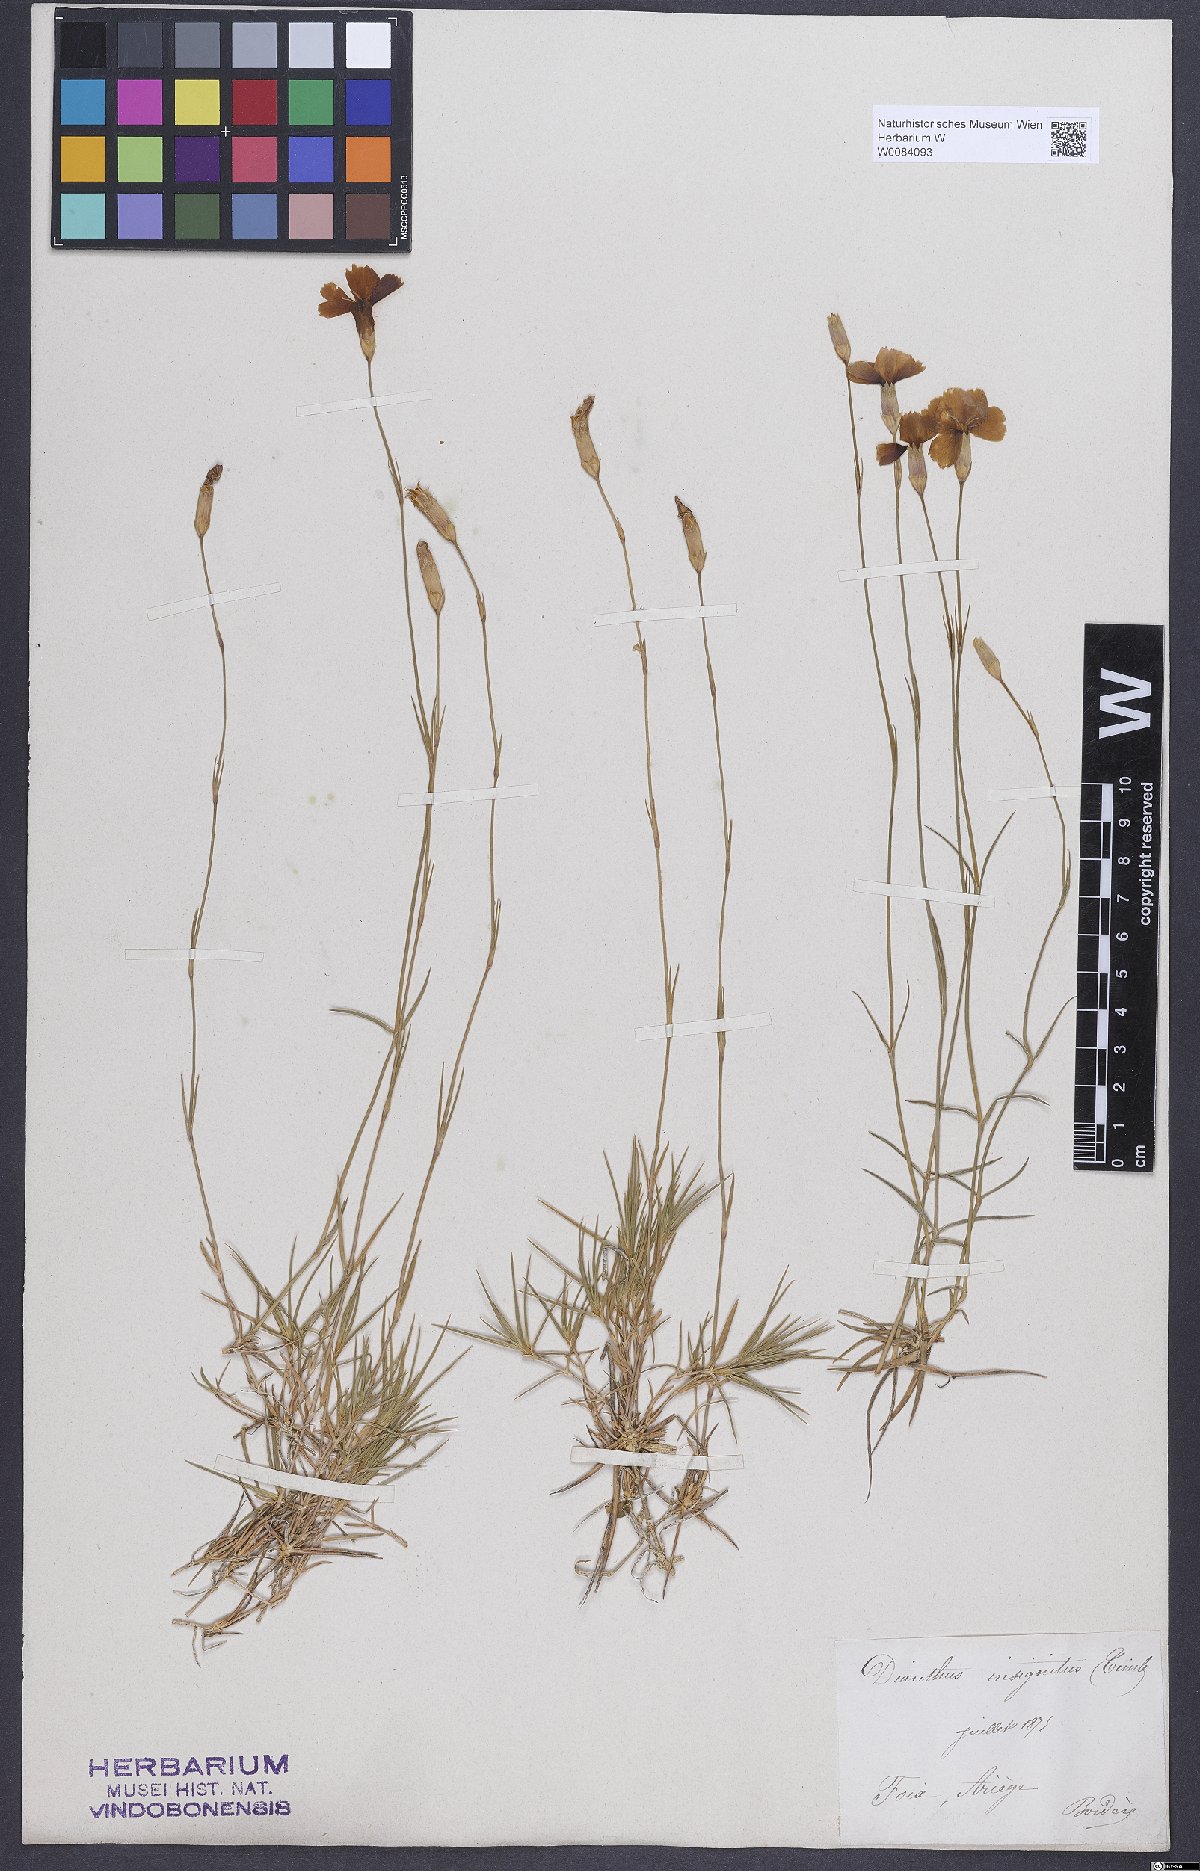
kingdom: Plantae
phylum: Tracheophyta
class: Magnoliopsida
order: Caryophyllales
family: Caryophyllaceae
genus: Dianthus
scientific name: Dianthus pungens
